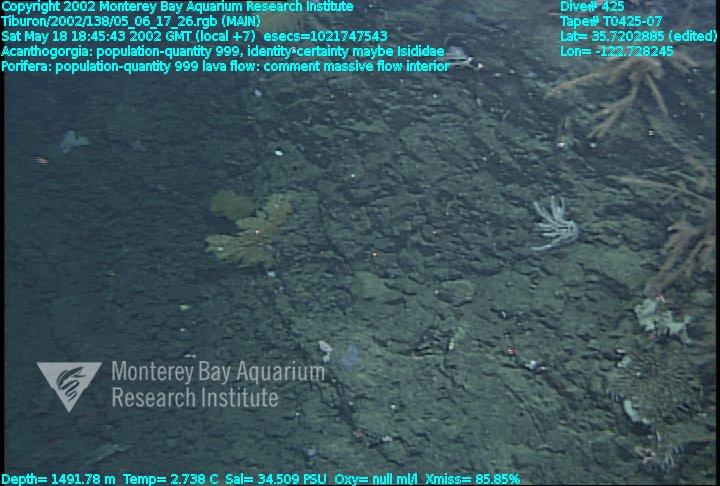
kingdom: Animalia
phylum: Porifera
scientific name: Porifera
